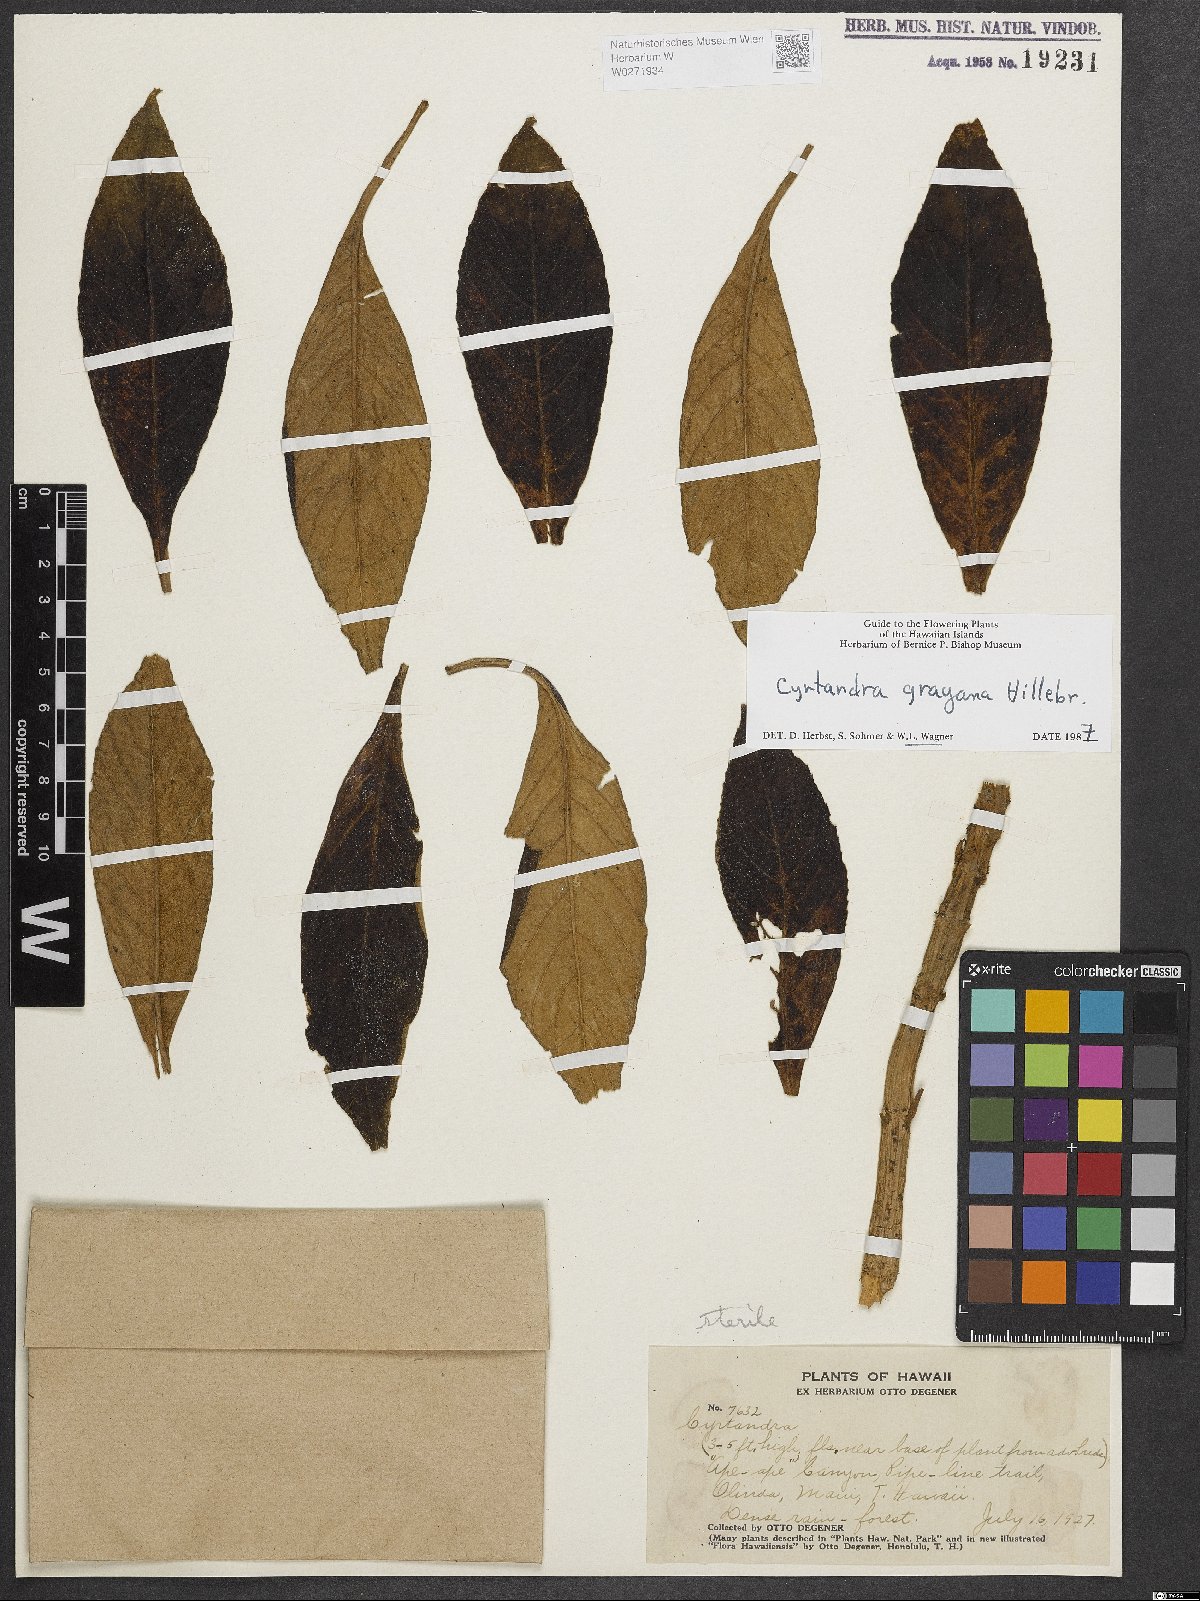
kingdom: Plantae
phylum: Tracheophyta
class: Magnoliopsida
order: Lamiales
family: Gesneriaceae
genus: Cyrtandra
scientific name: Cyrtandra grayana
